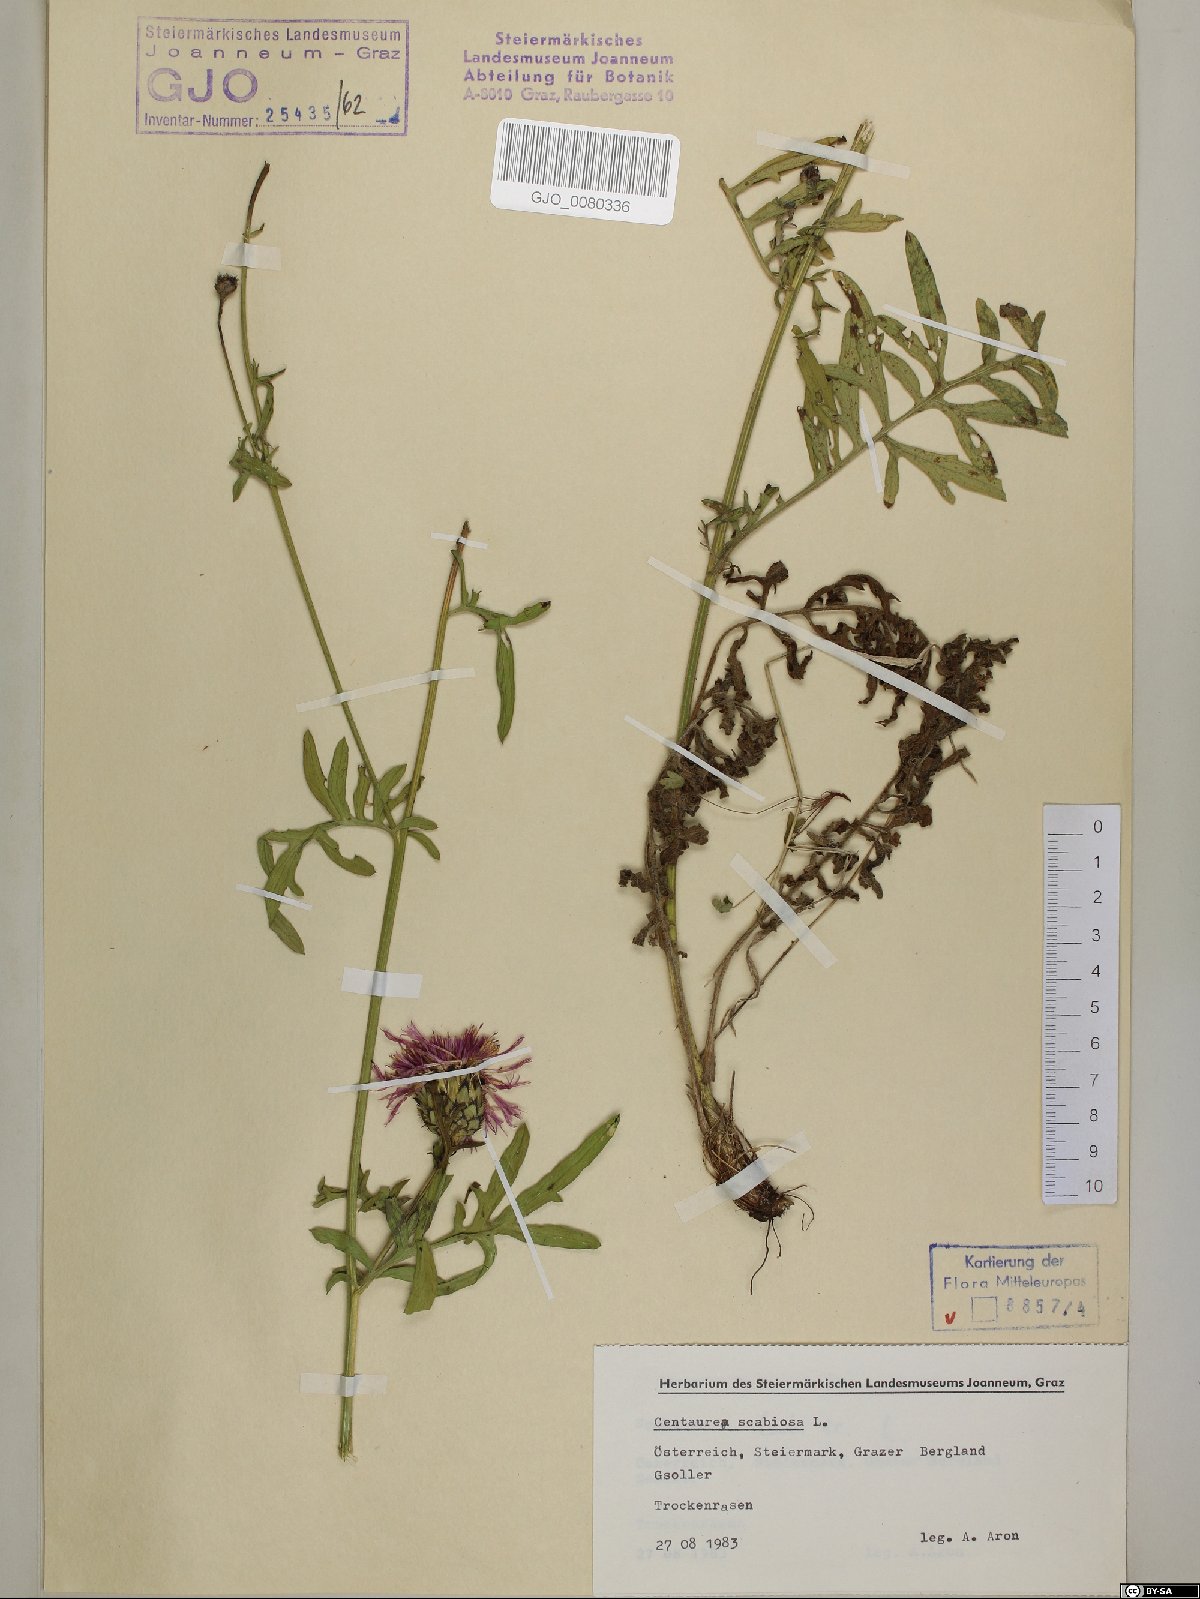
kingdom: Plantae
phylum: Tracheophyta
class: Magnoliopsida
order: Asterales
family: Asteraceae
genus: Centaurea
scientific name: Centaurea scabiosa
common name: Greater knapweed
